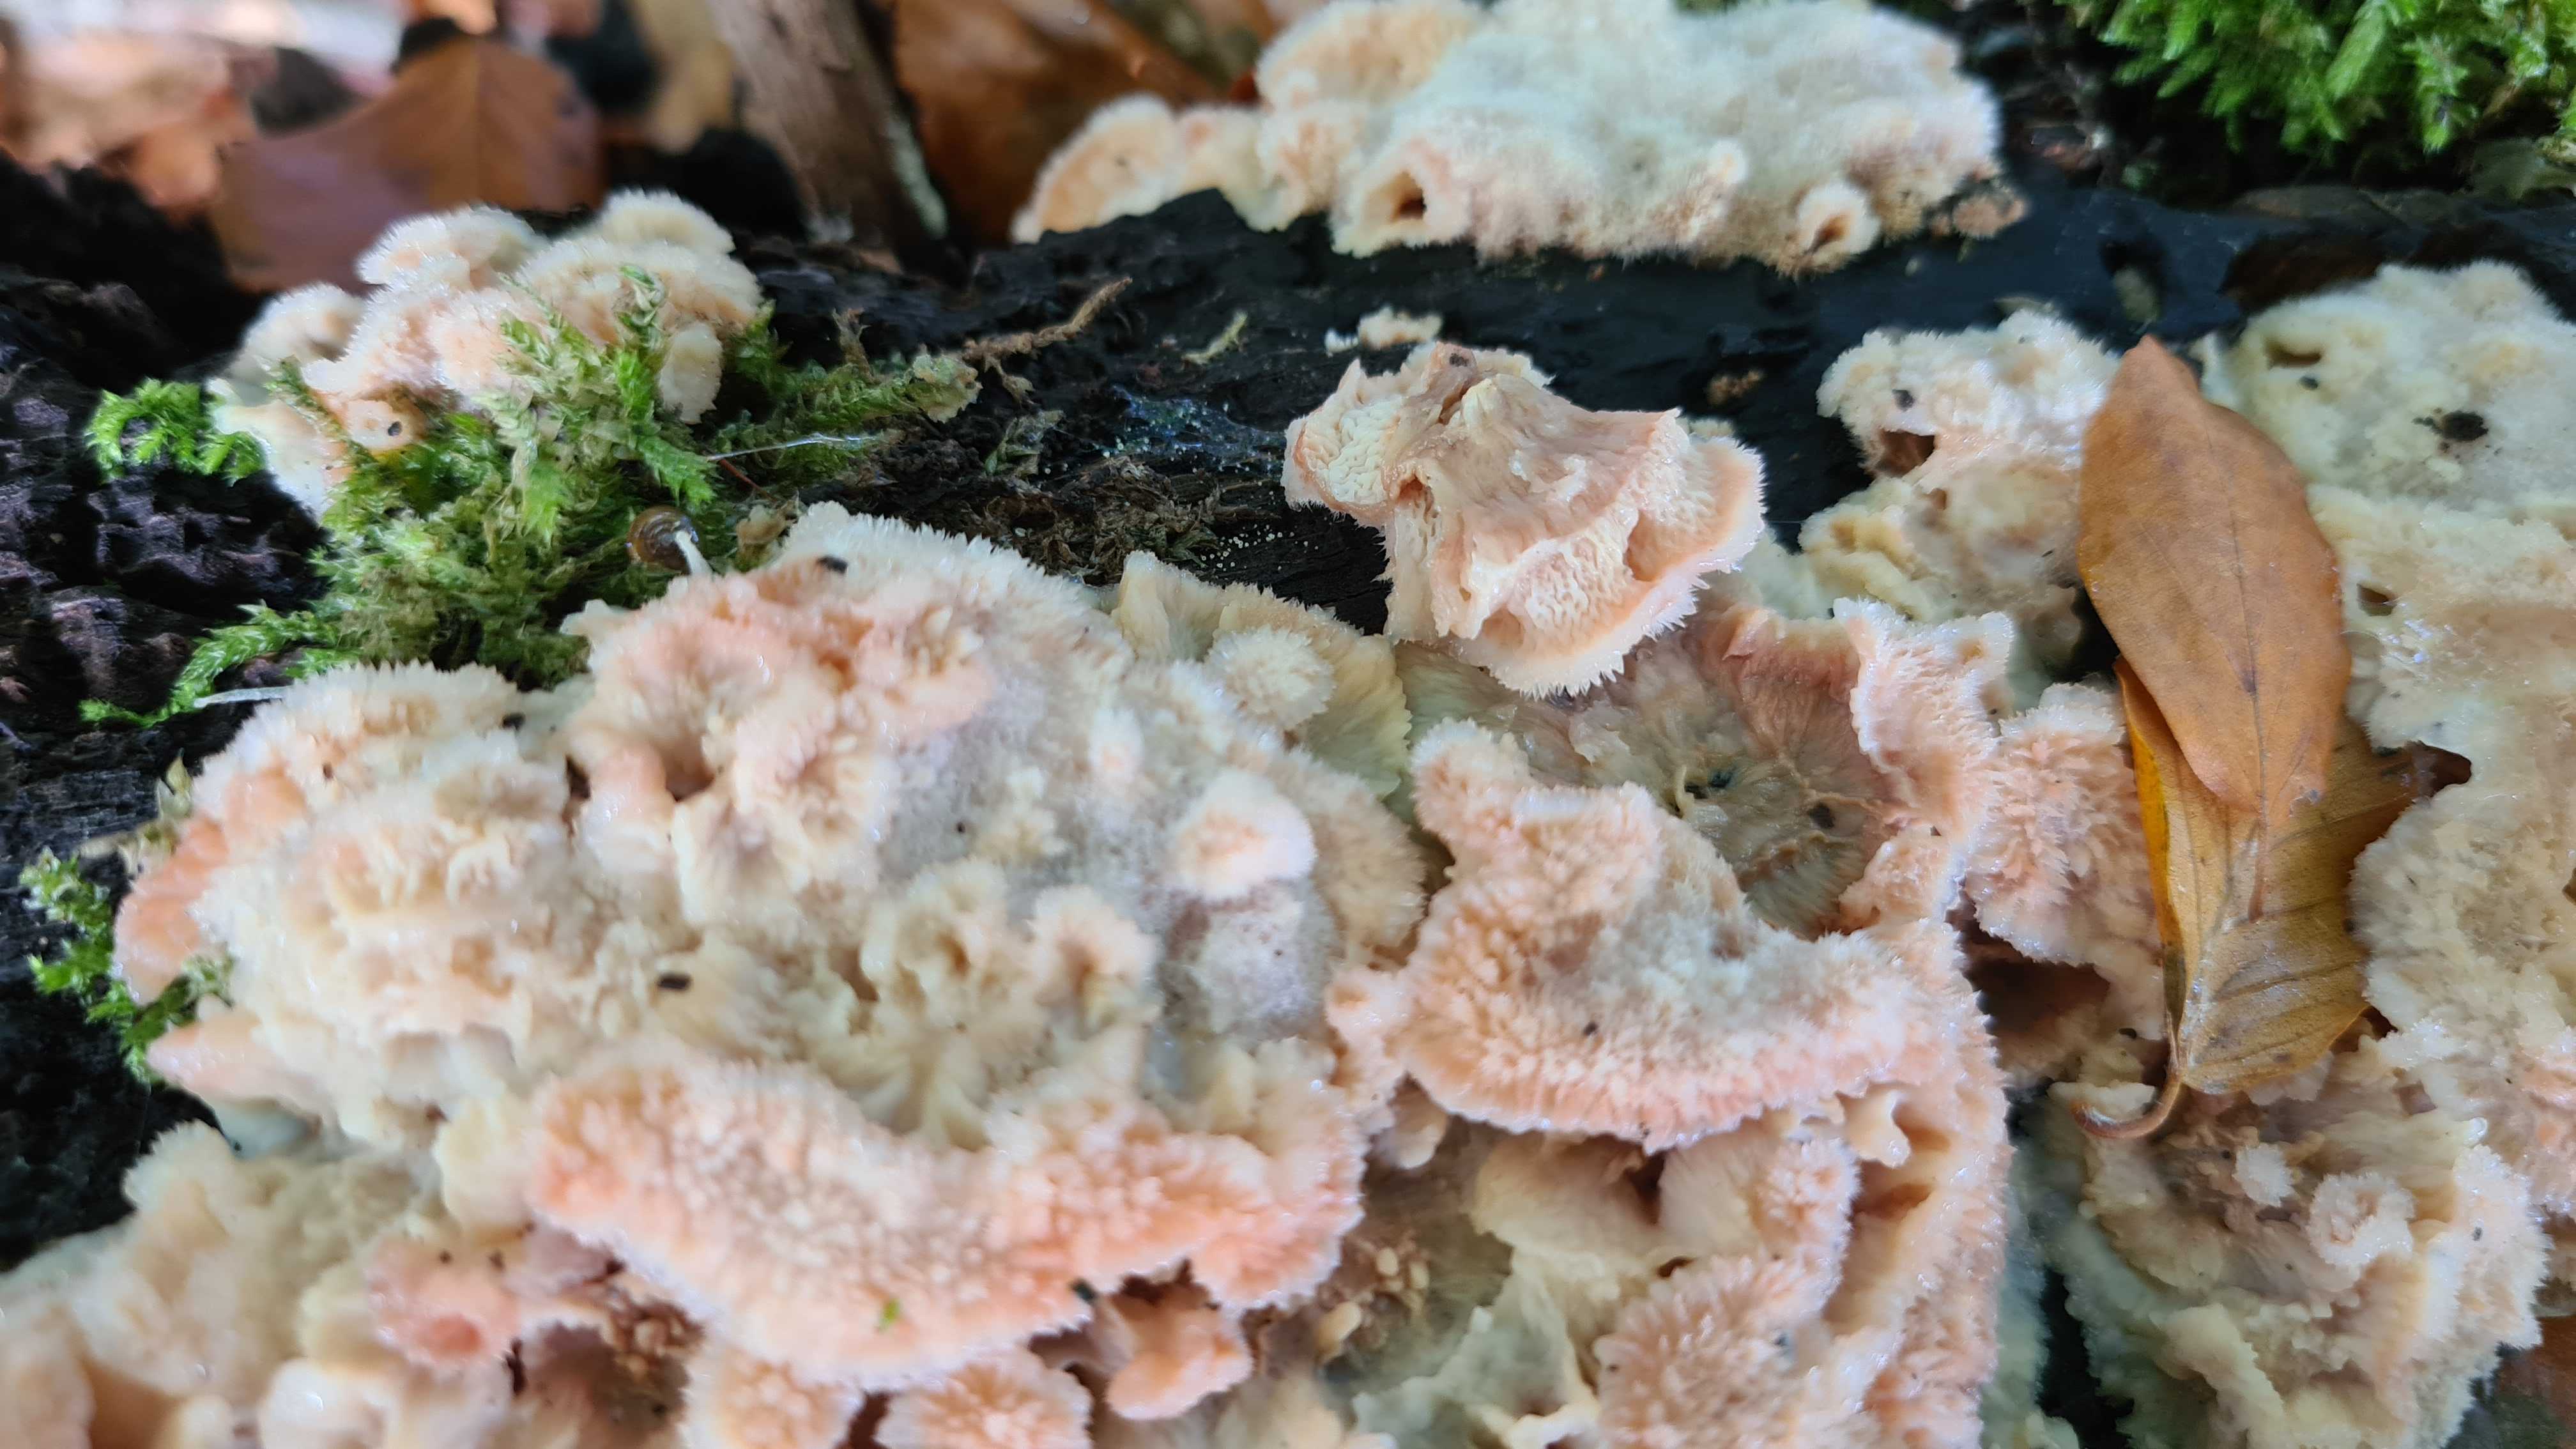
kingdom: Fungi
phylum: Basidiomycota
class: Agaricomycetes
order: Polyporales
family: Meruliaceae
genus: Phlebia
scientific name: Phlebia tremellosa
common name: bævrende åresvamp
